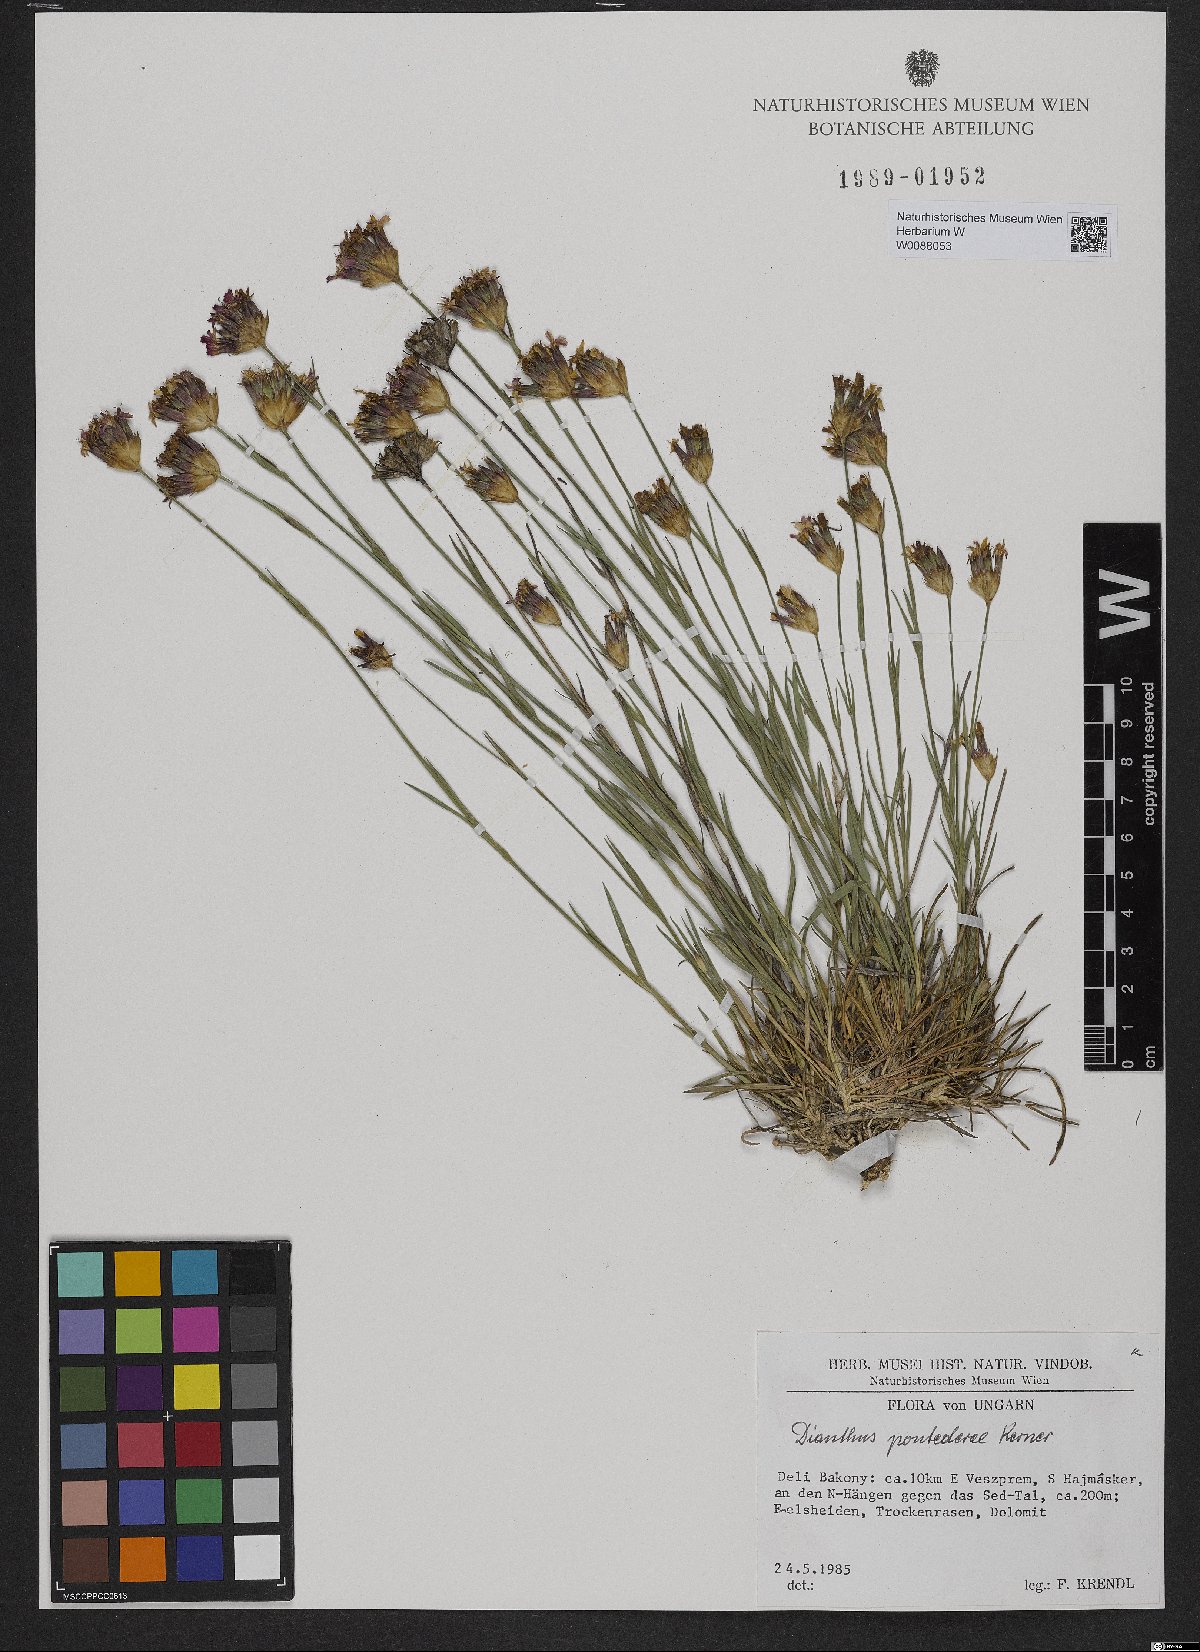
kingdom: Plantae
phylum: Tracheophyta
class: Magnoliopsida
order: Caryophyllales
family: Caryophyllaceae
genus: Dianthus
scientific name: Dianthus pontederae
